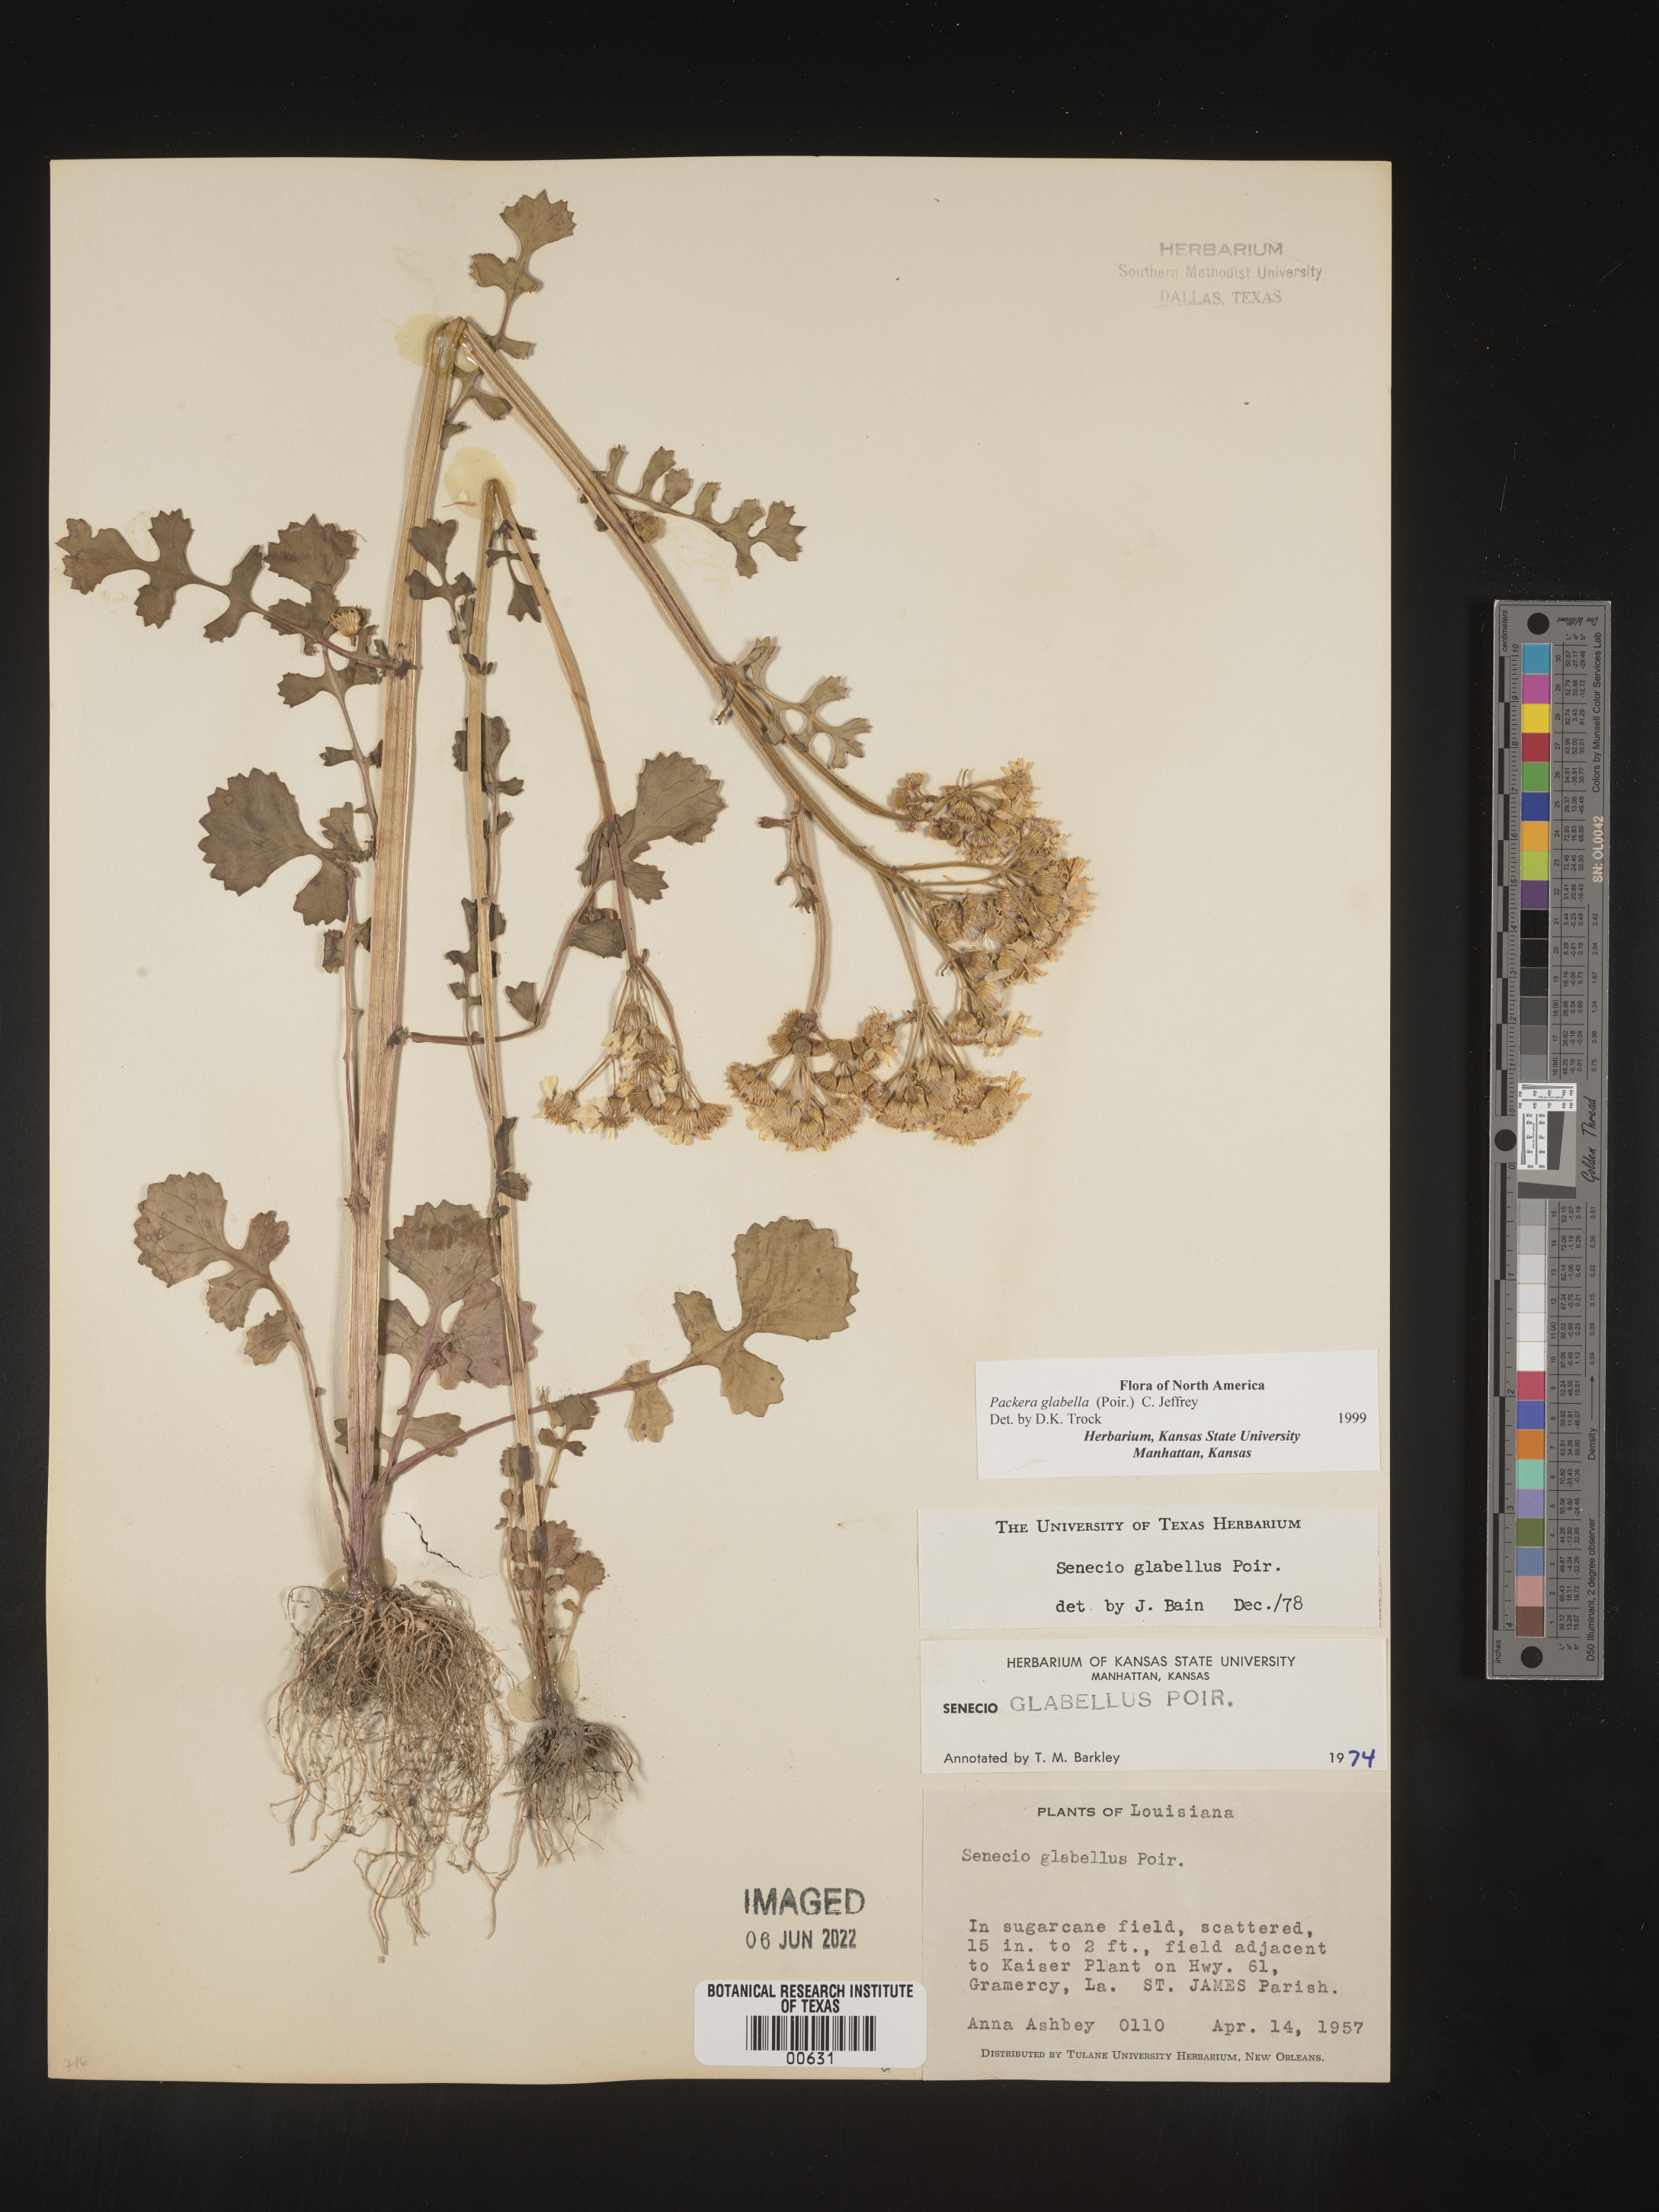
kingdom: Plantae
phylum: Tracheophyta
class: Magnoliopsida
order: Asterales
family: Asteraceae
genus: Packera
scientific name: Packera glabella
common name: Butterweed
